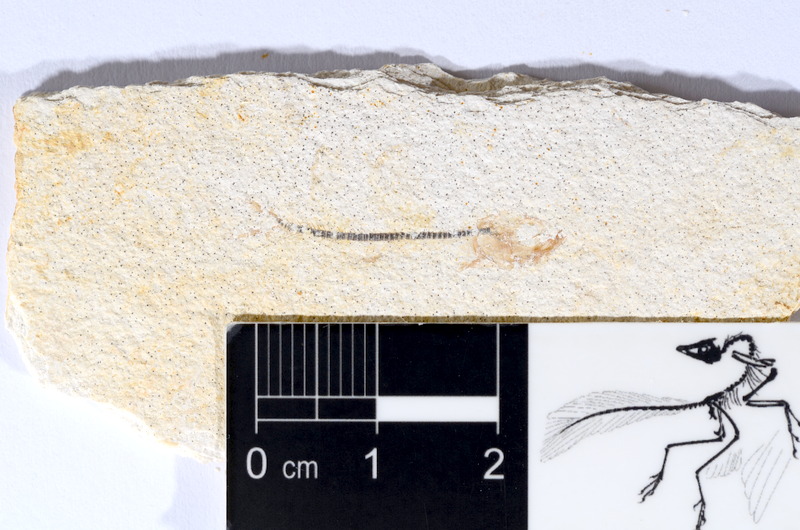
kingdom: Animalia
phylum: Chordata
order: Salmoniformes
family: Orthogonikleithridae
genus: Orthogonikleithrus
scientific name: Orthogonikleithrus hoelli
